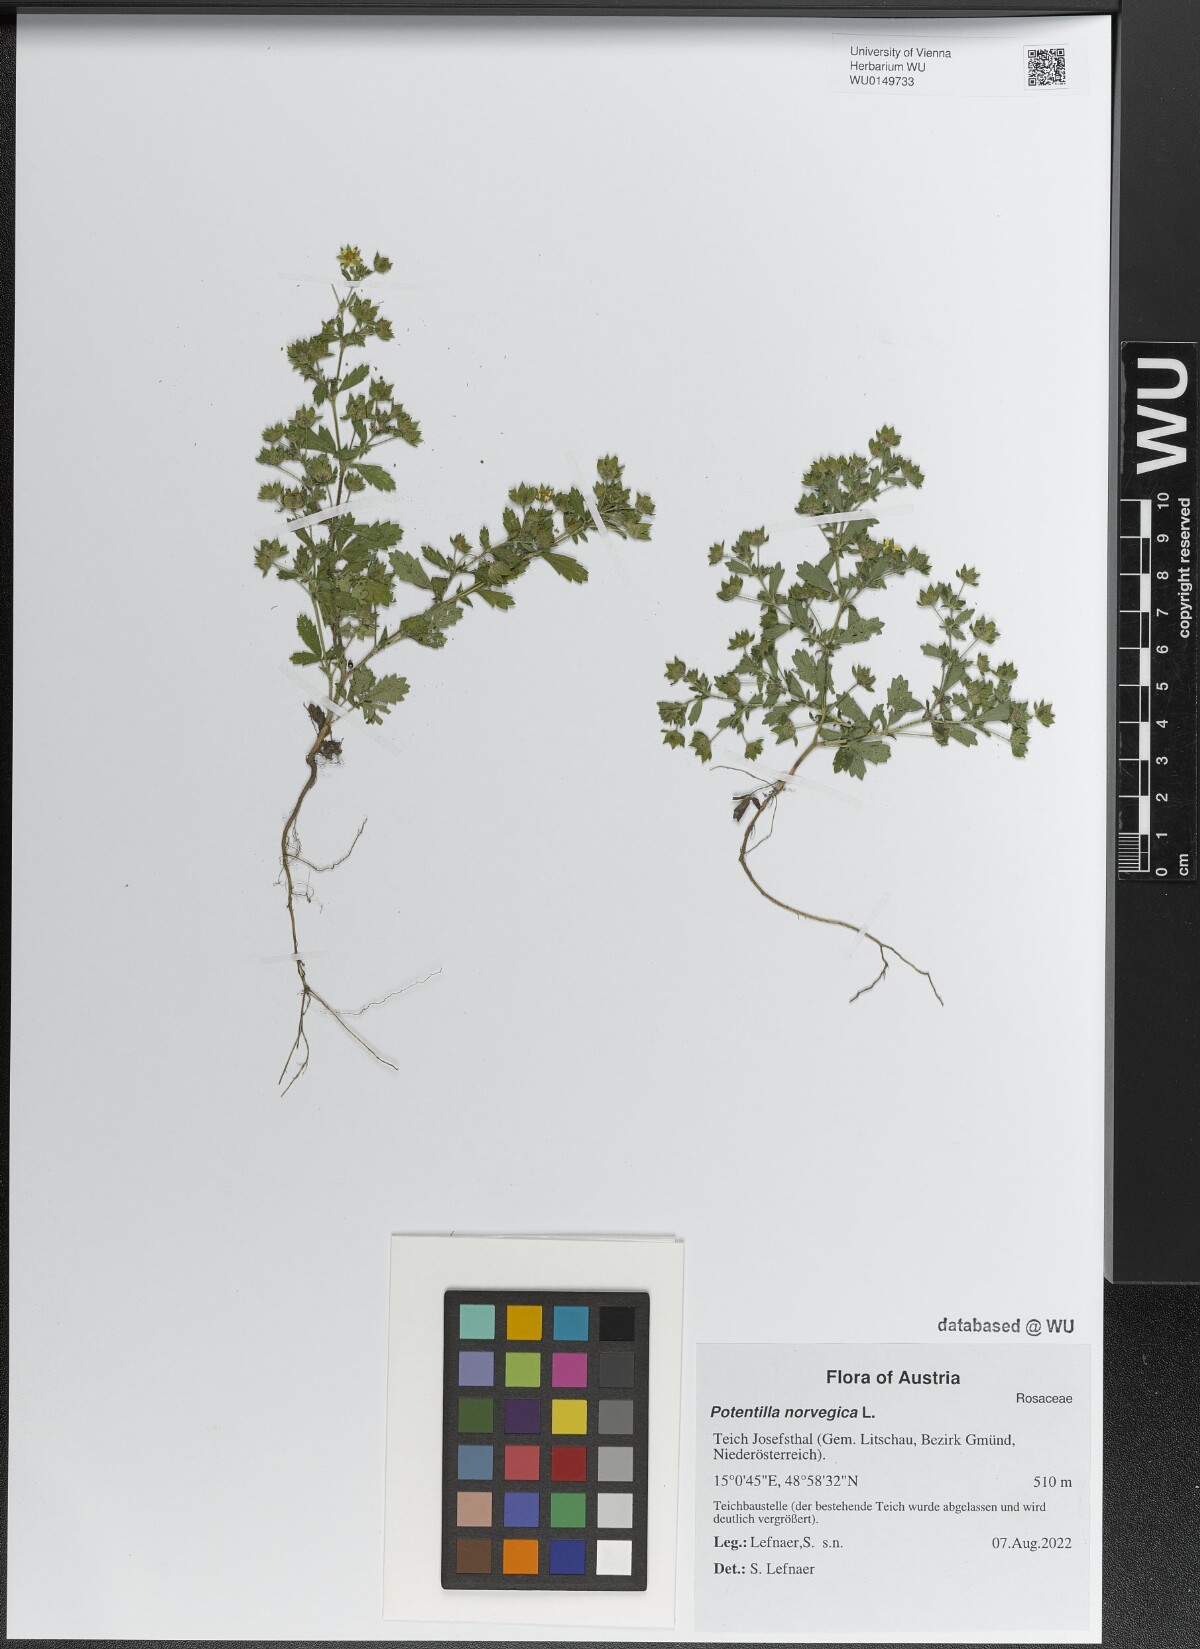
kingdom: Plantae
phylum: Tracheophyta
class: Magnoliopsida
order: Rosales
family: Rosaceae
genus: Potentilla
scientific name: Potentilla norvegica
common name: Ternate-leaved cinquefoil
